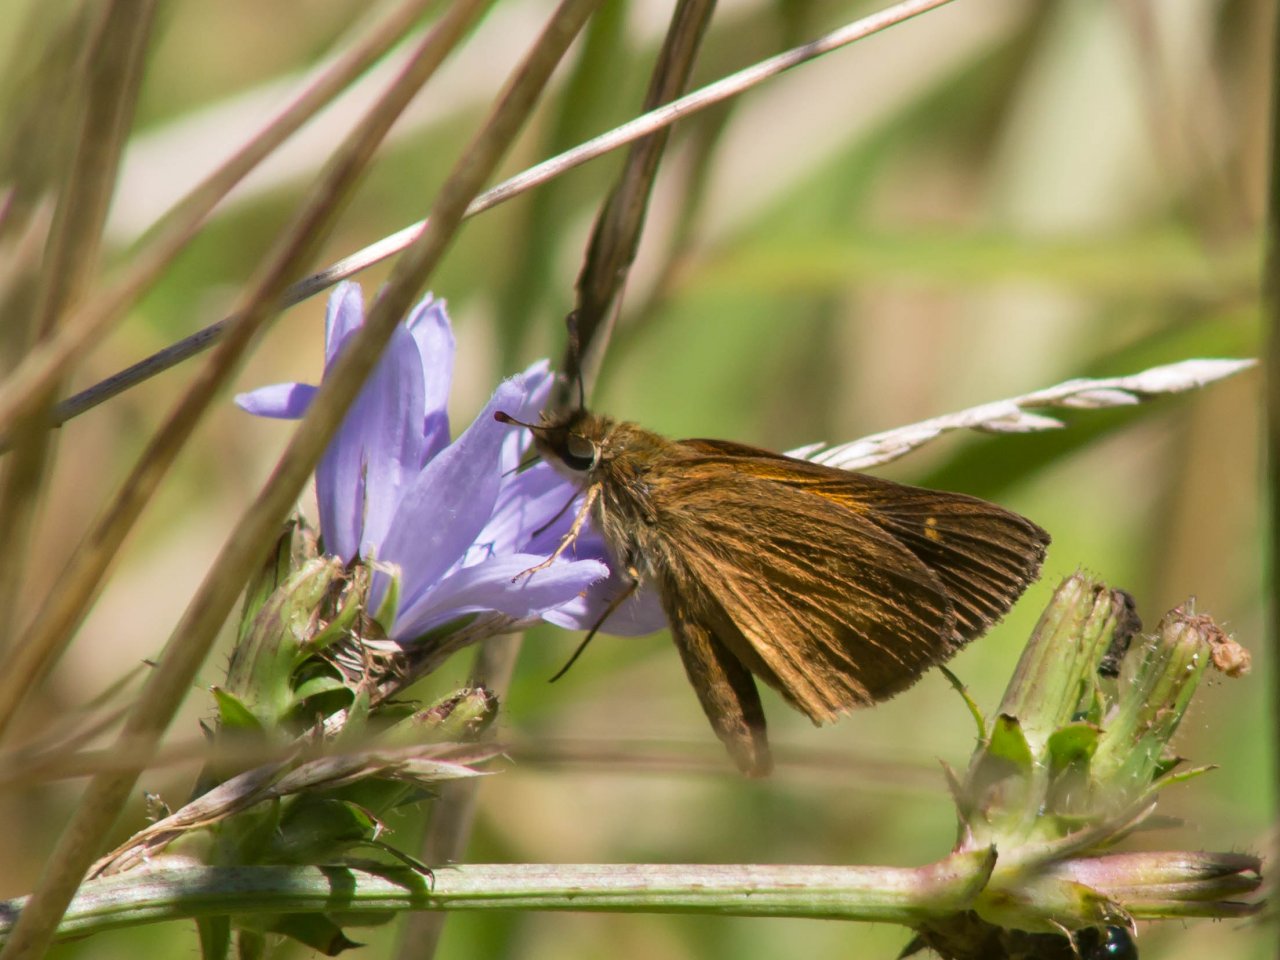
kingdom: Animalia
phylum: Arthropoda
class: Insecta
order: Lepidoptera
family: Hesperiidae
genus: Poanes
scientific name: Poanes viator
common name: Broad-winged Skipper
